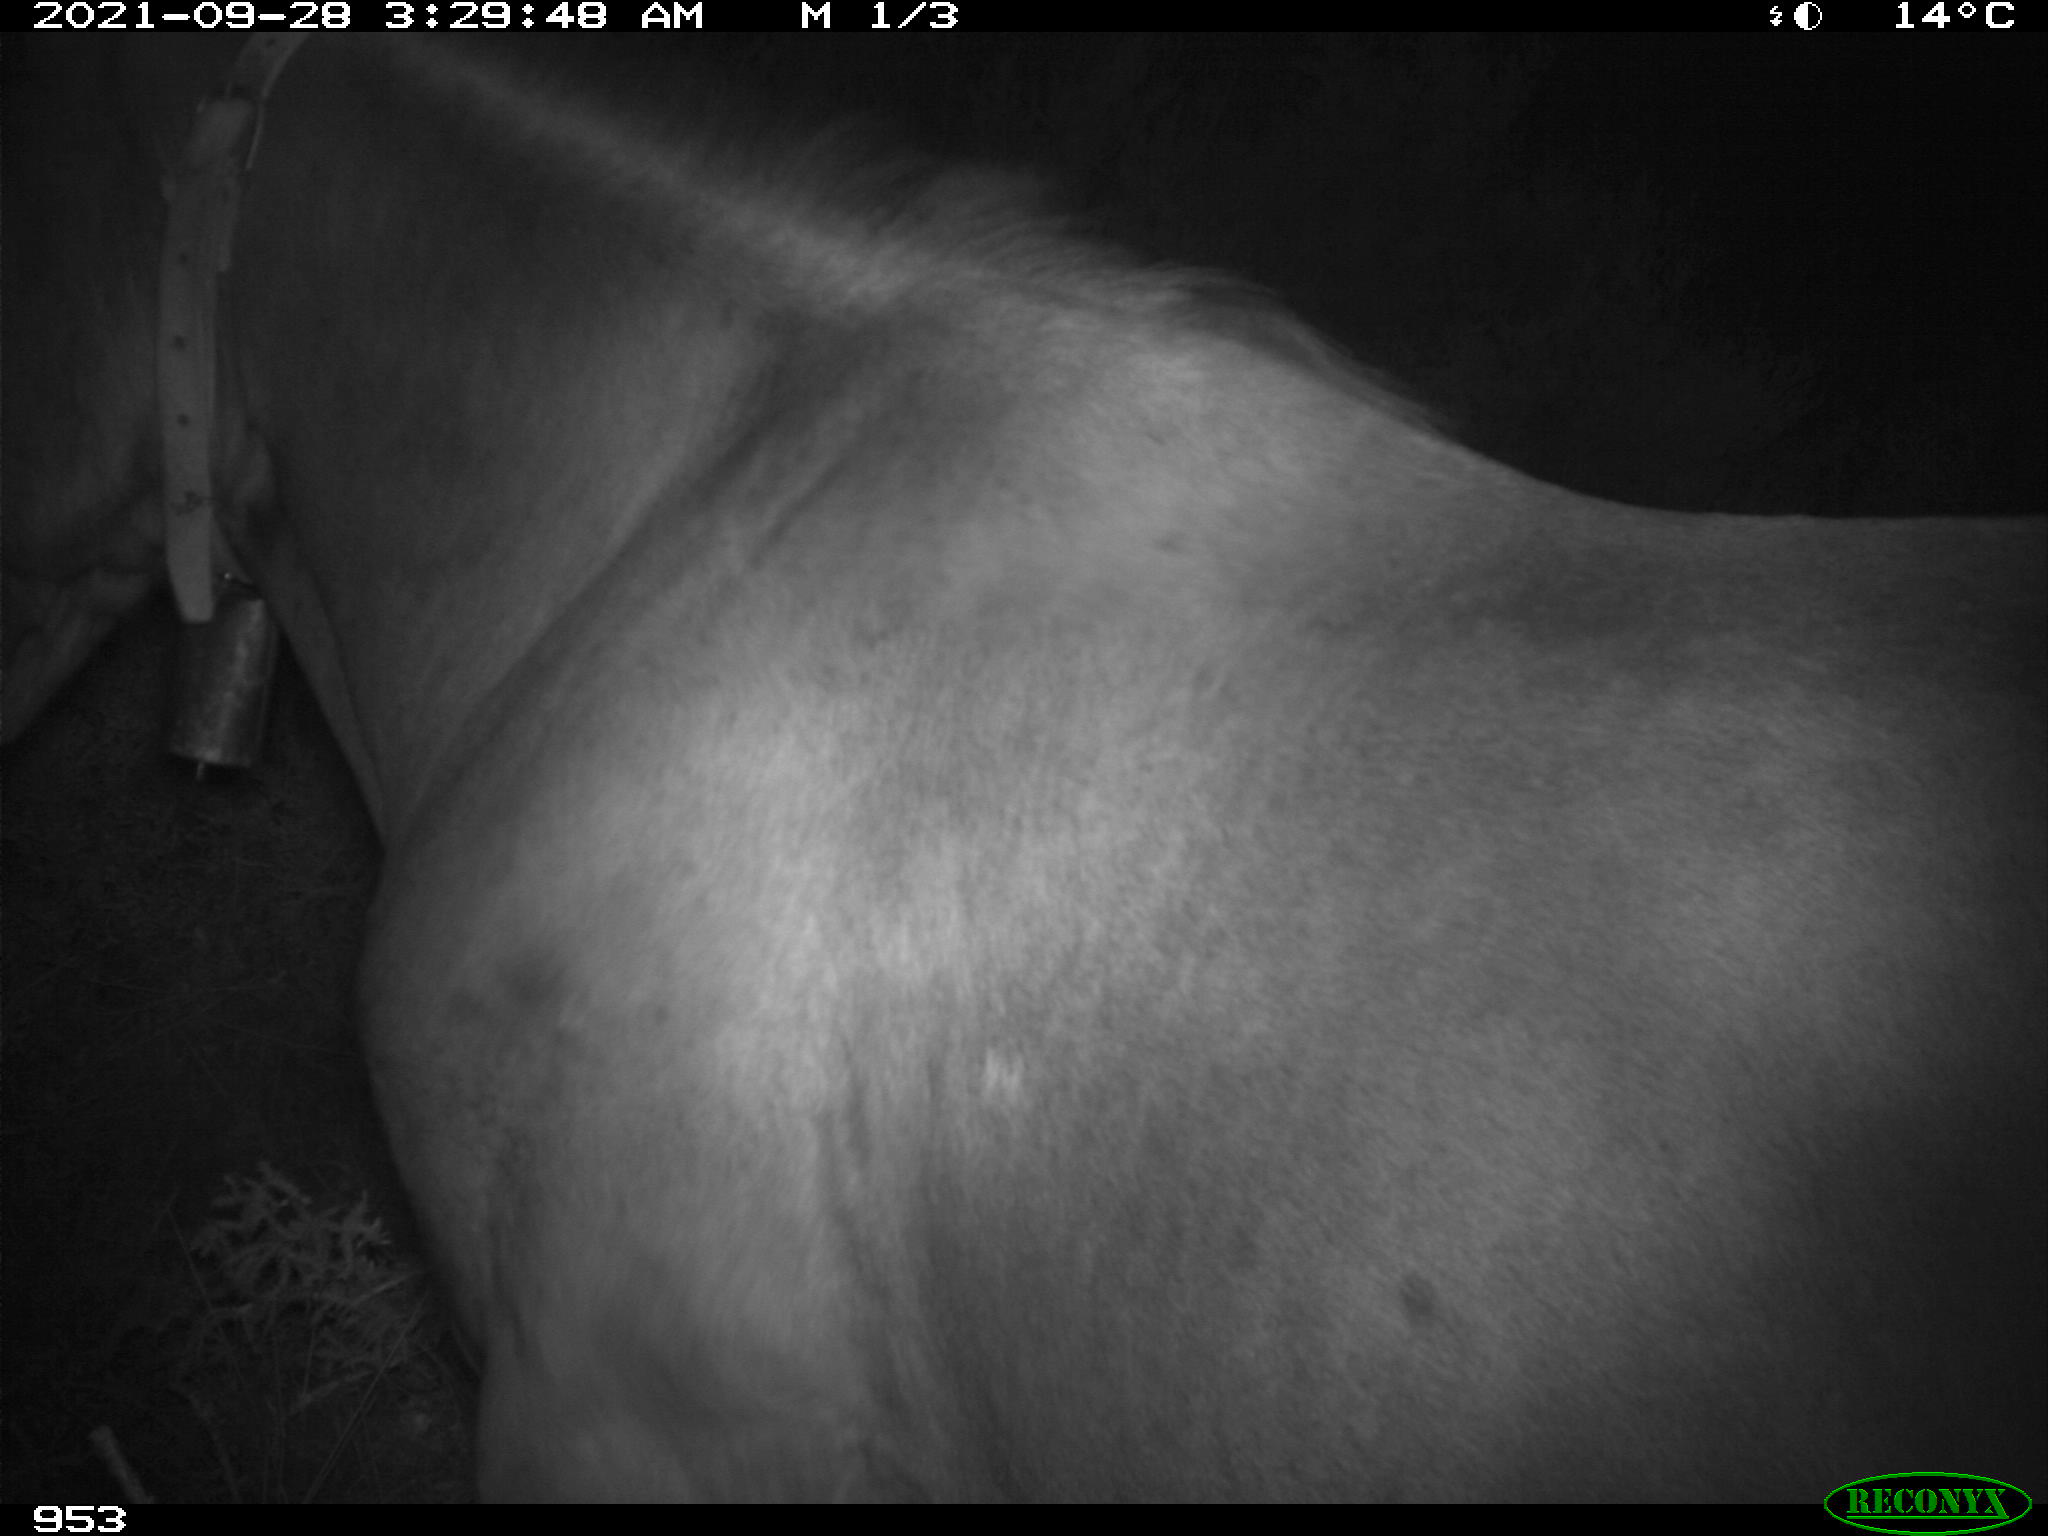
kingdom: Animalia
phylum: Chordata
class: Mammalia
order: Perissodactyla
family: Equidae
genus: Equus
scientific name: Equus caballus
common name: Horse
